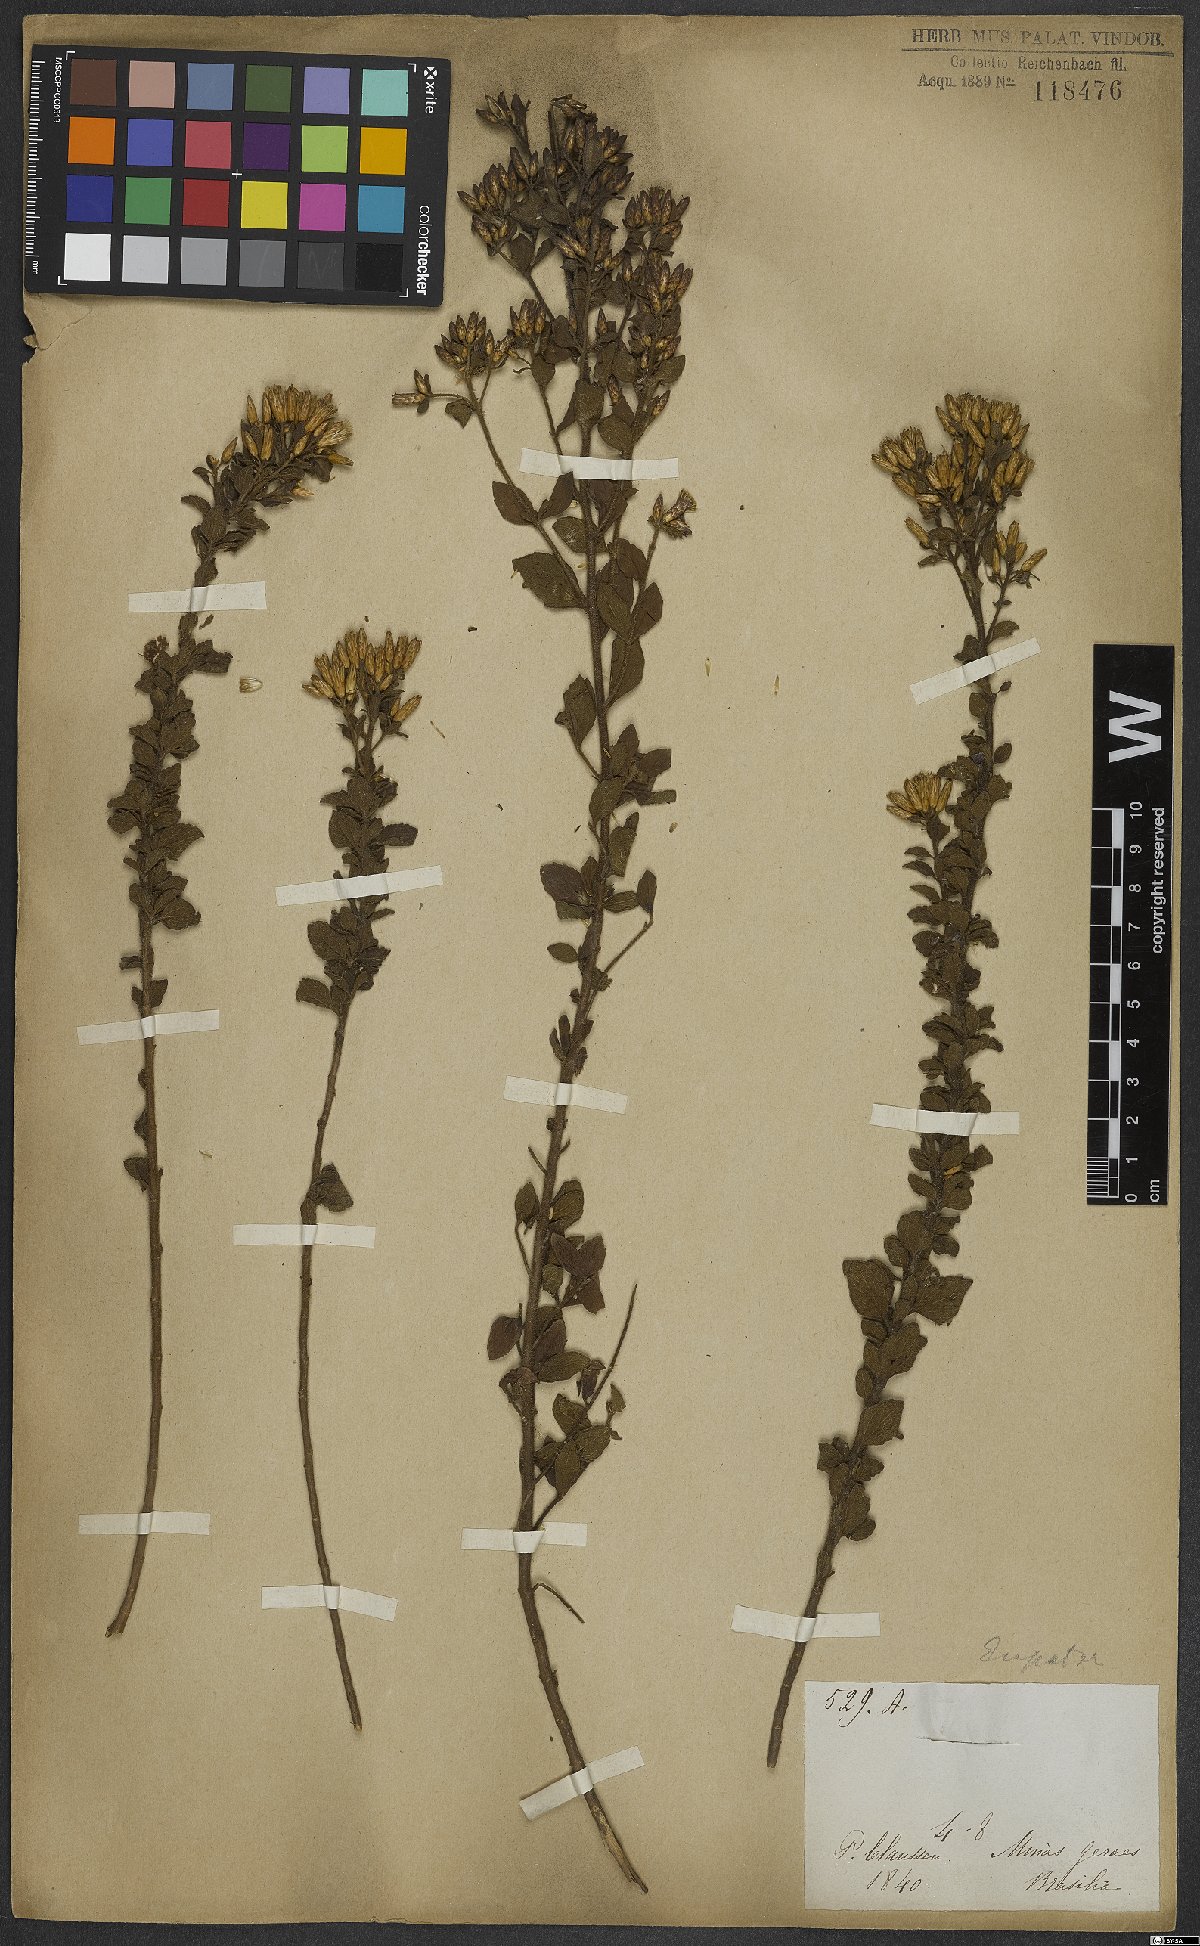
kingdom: Plantae
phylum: Tracheophyta
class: Magnoliopsida
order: Asterales
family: Asteraceae
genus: Eupatorium
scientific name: Eupatorium
